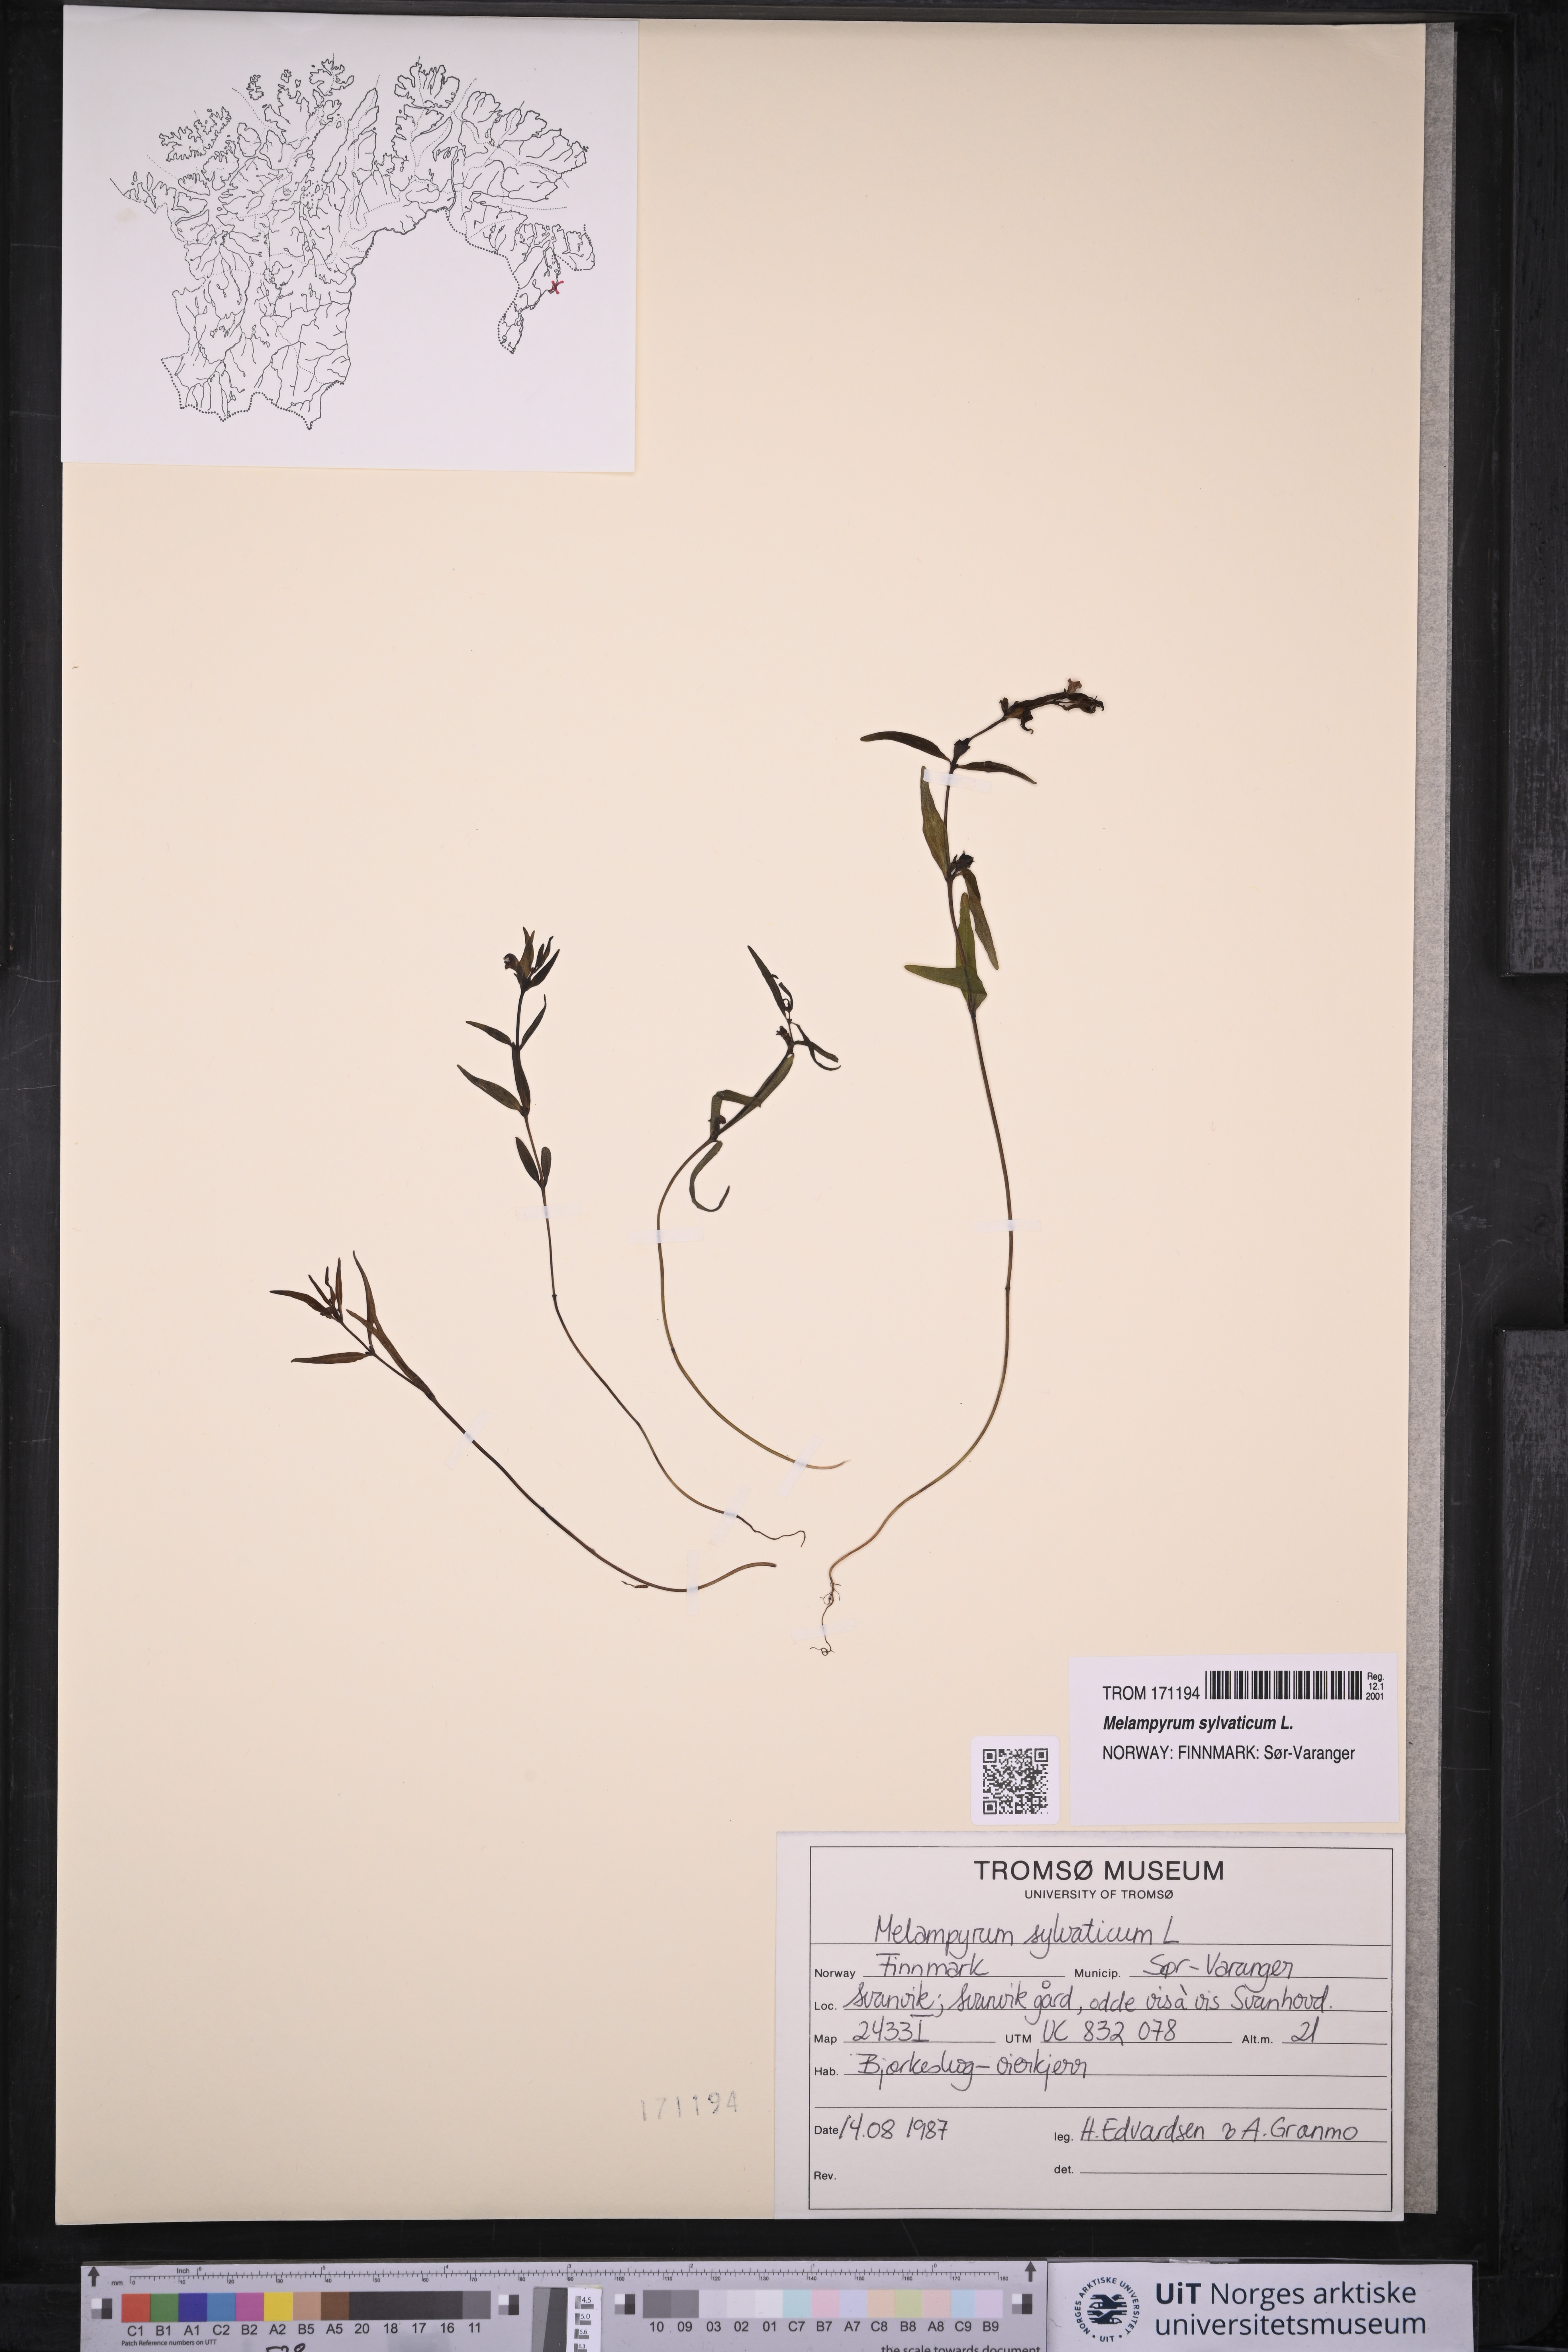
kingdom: Plantae
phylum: Tracheophyta
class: Magnoliopsida
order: Lamiales
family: Orobanchaceae
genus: Melampyrum
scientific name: Melampyrum sylvaticum
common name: Small cow-wheat
